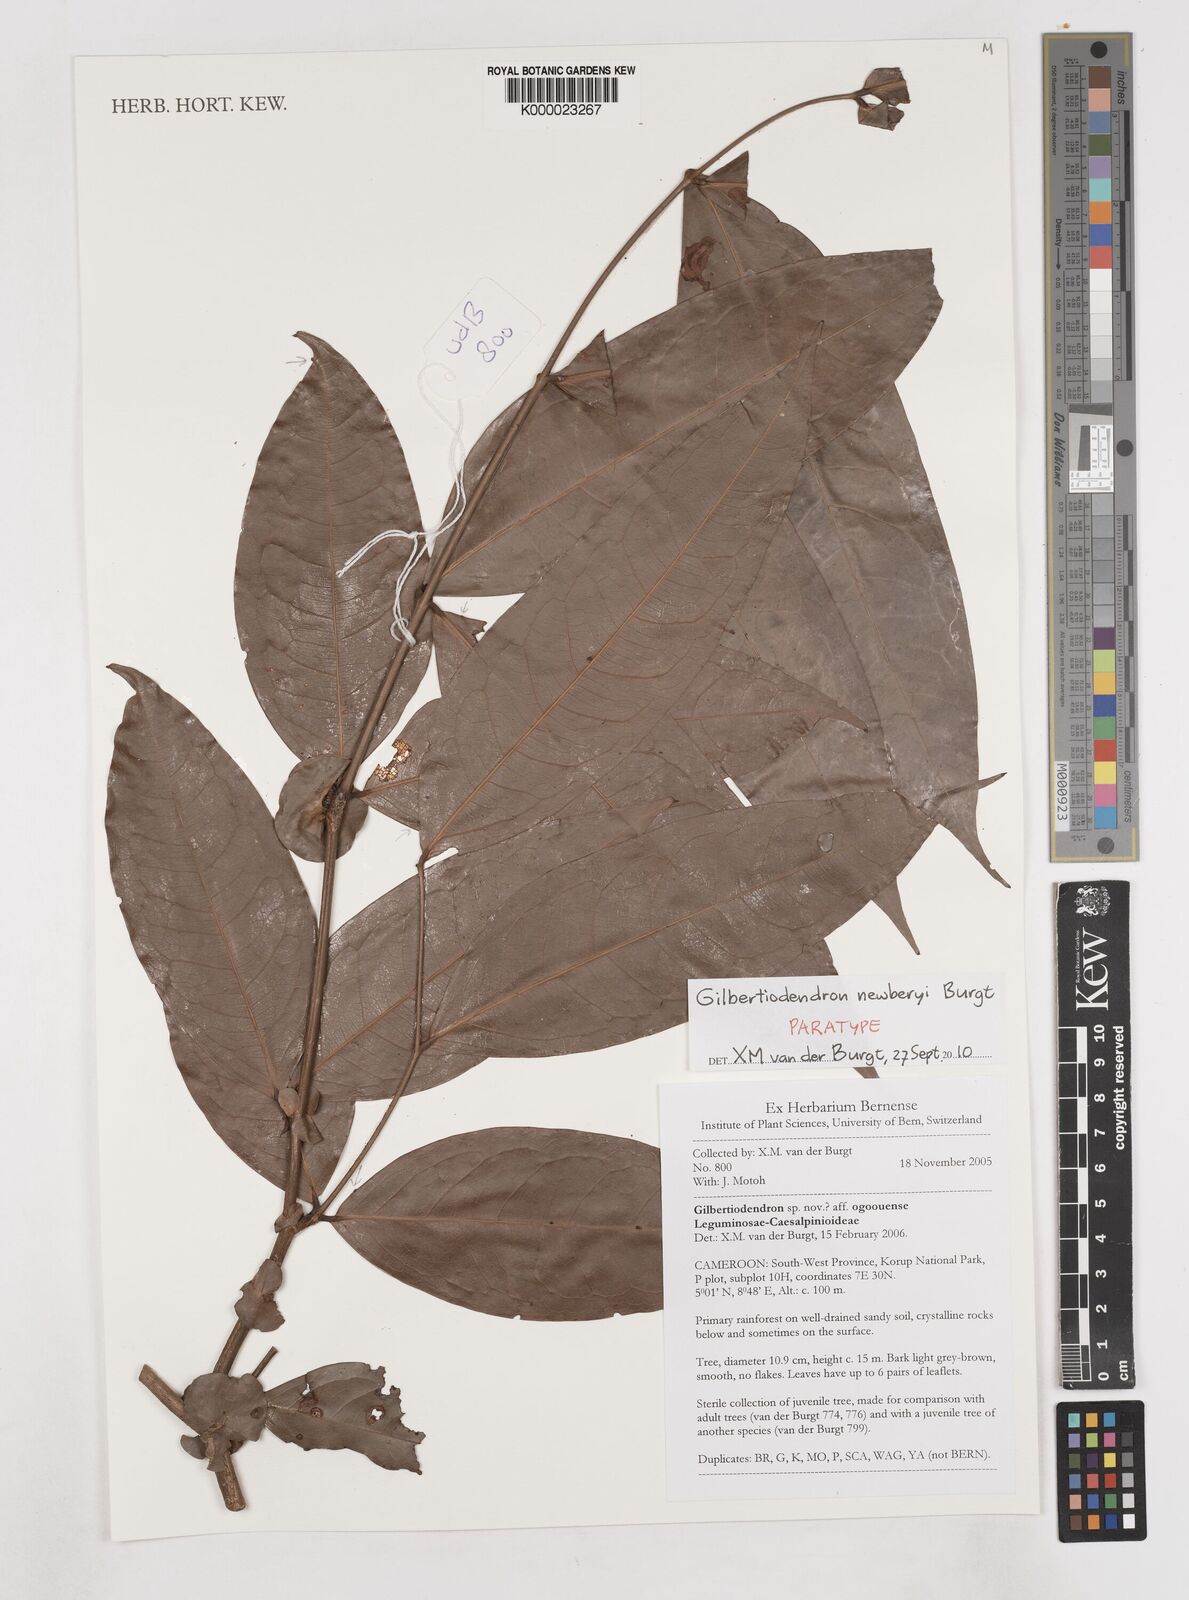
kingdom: Plantae
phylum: Tracheophyta
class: Magnoliopsida
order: Fabales
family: Fabaceae
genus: Gilbertiodendron
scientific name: Gilbertiodendron newberyi
